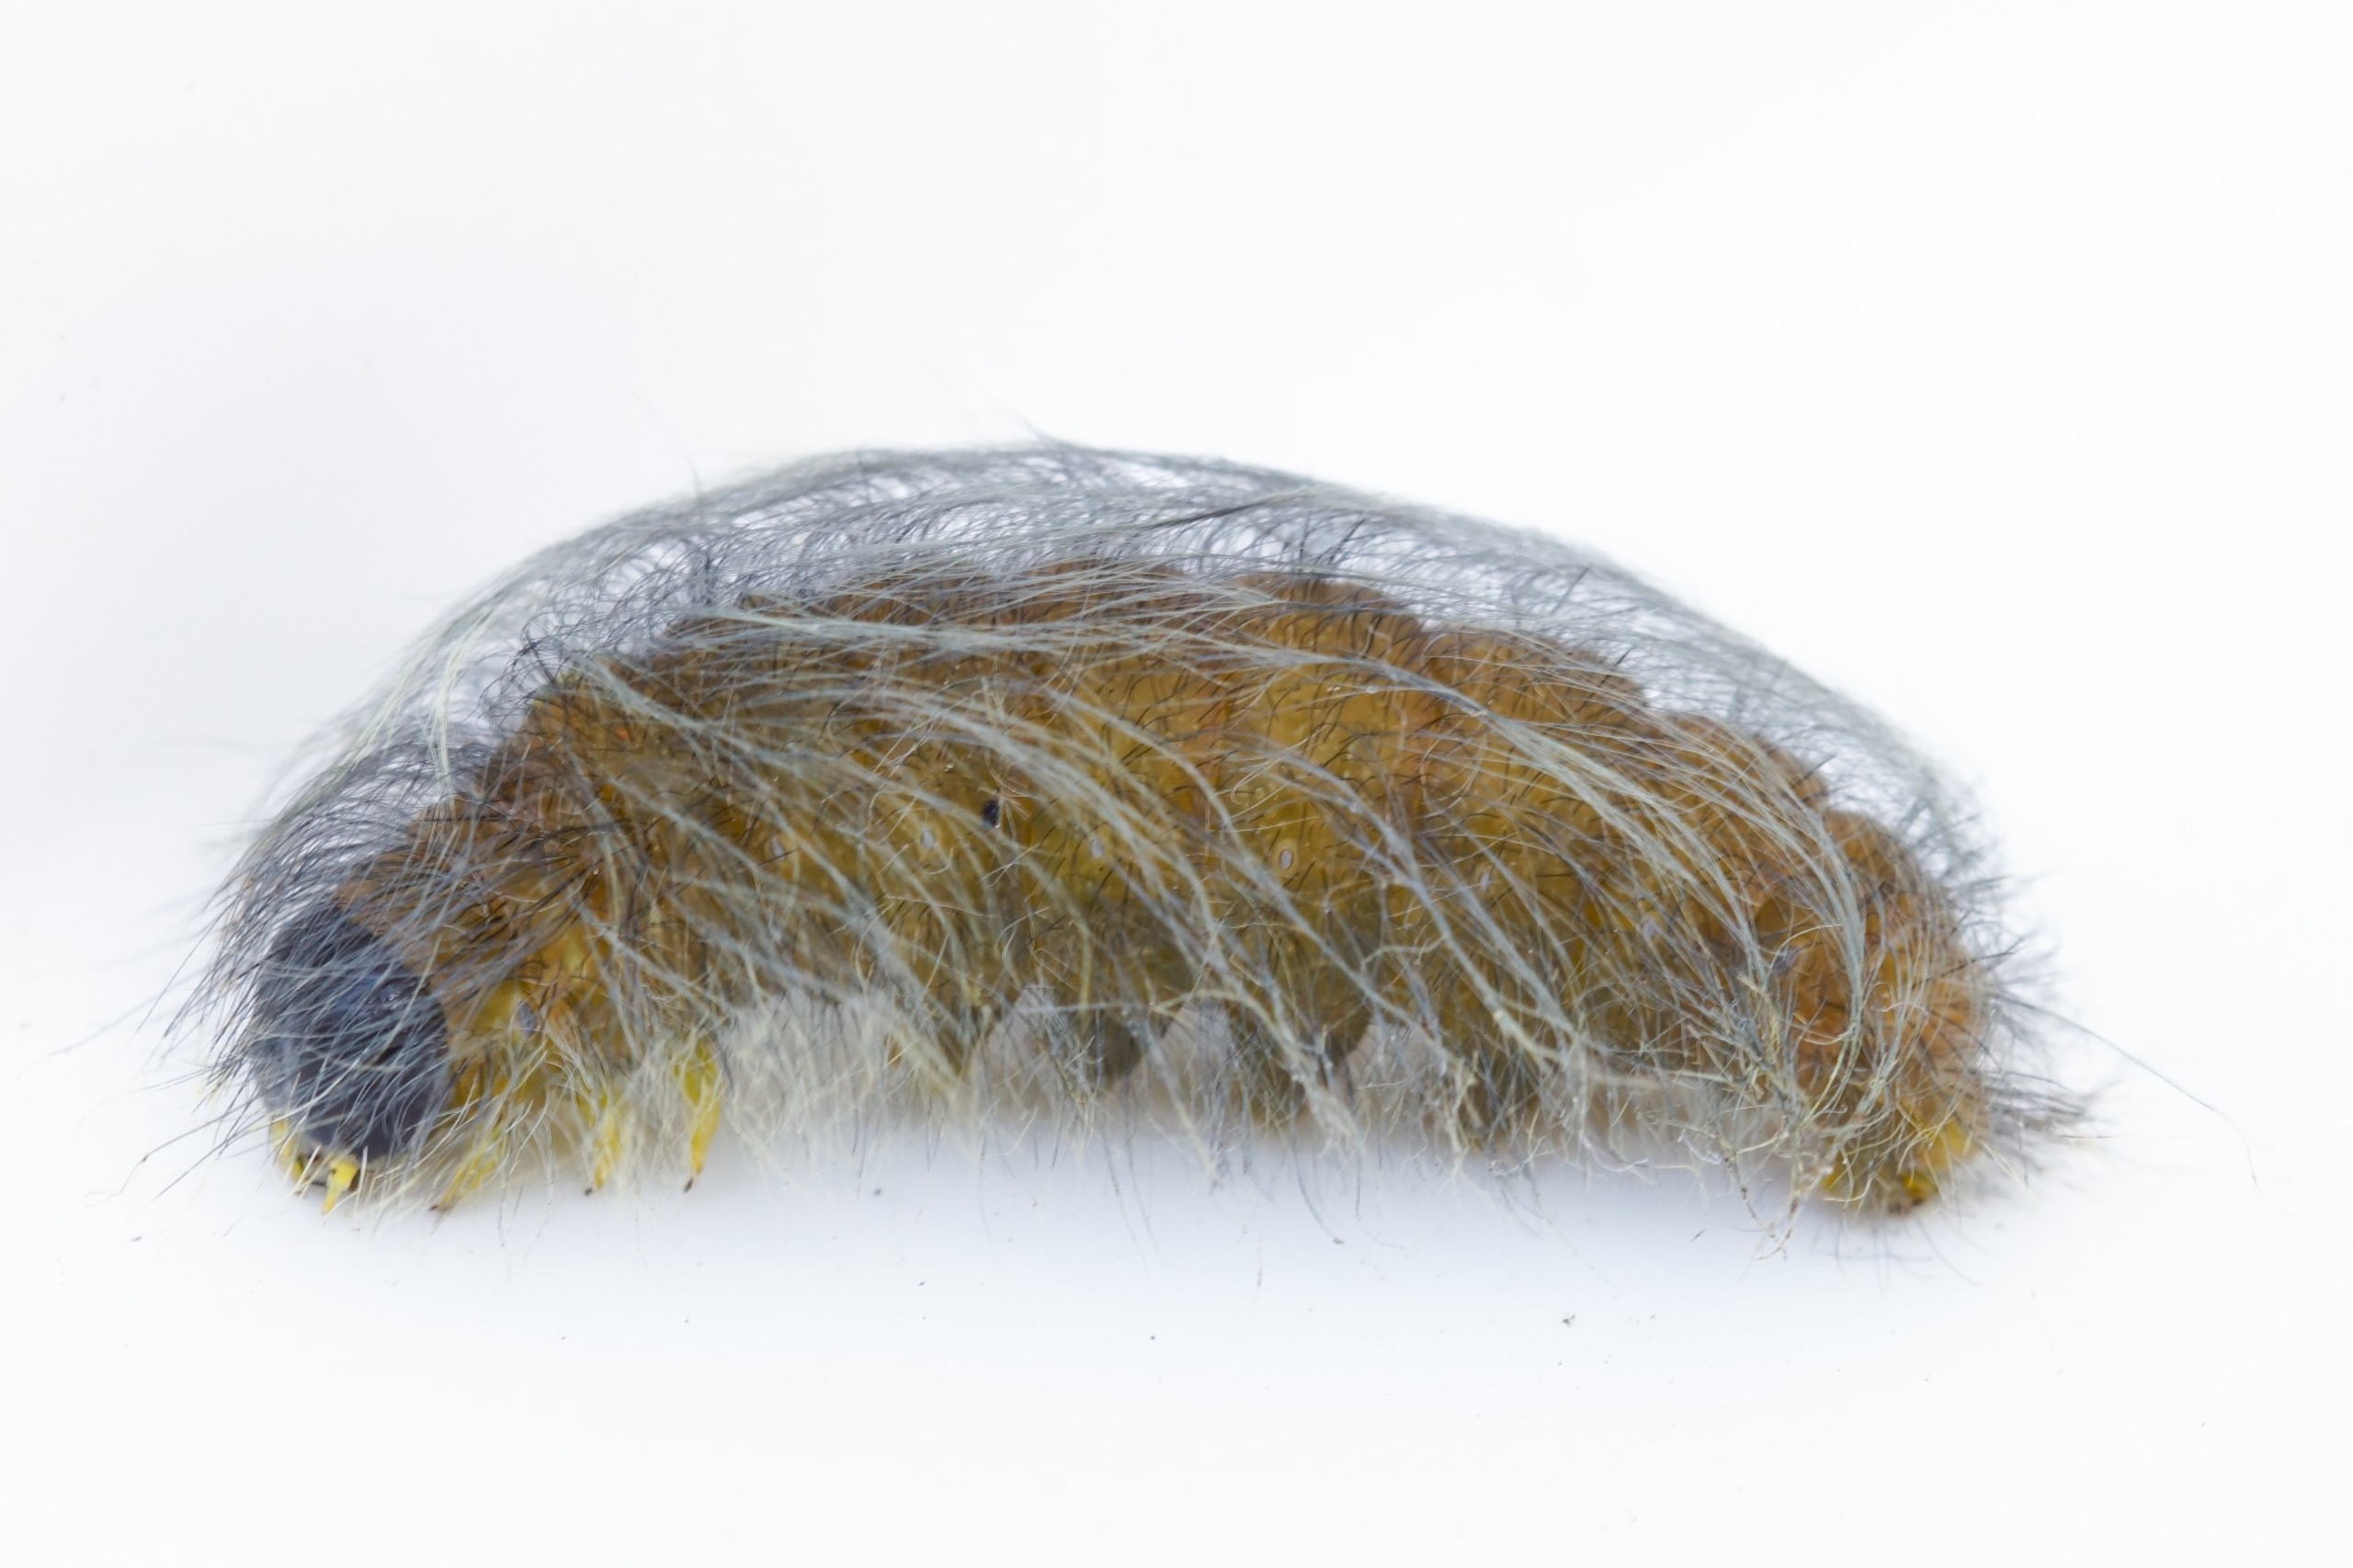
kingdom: Animalia
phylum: Arthropoda
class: Insecta
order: Lepidoptera
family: Noctuidae
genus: Acronicta
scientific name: Acronicta leporina
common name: Snehare
